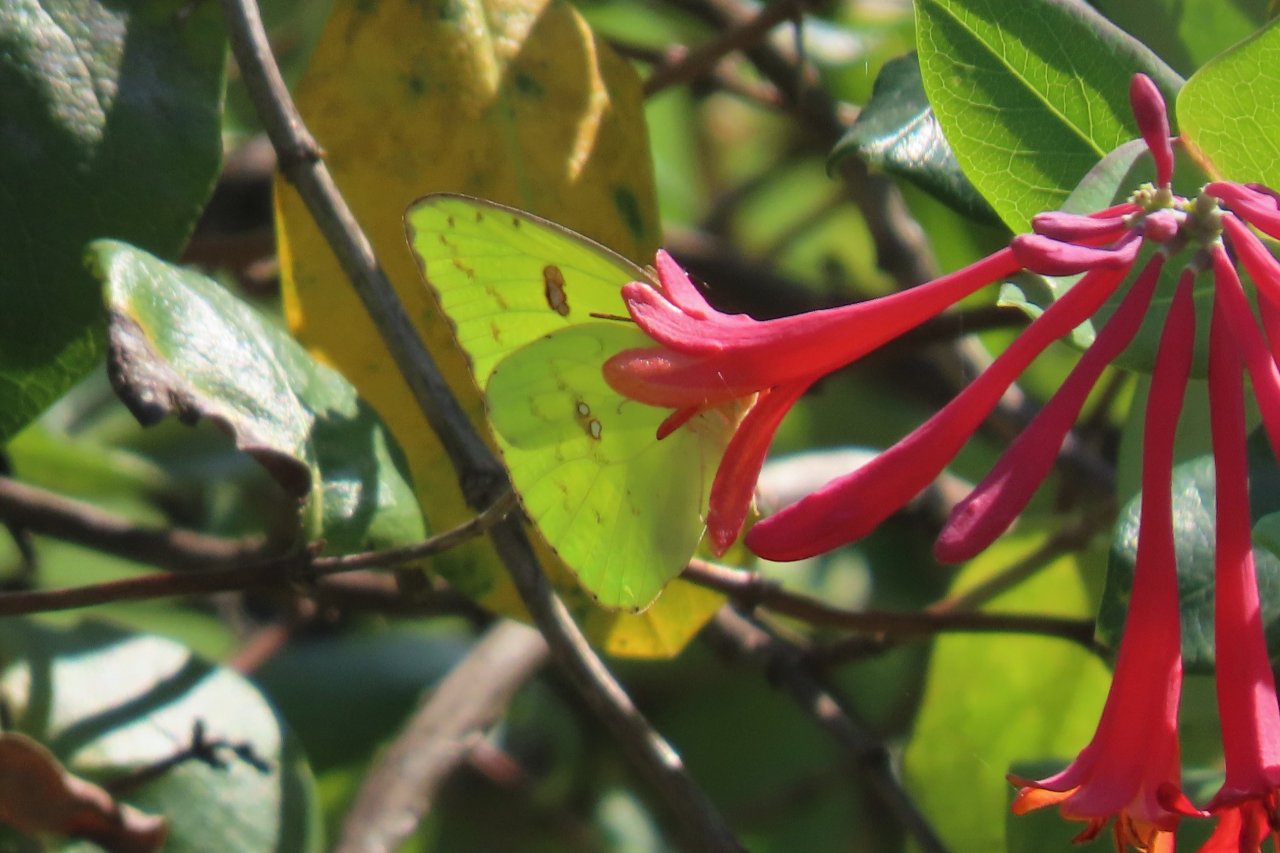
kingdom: Animalia
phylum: Arthropoda
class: Insecta
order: Lepidoptera
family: Pieridae
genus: Phoebis
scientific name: Phoebis sennae
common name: Cloudless Sulphur
